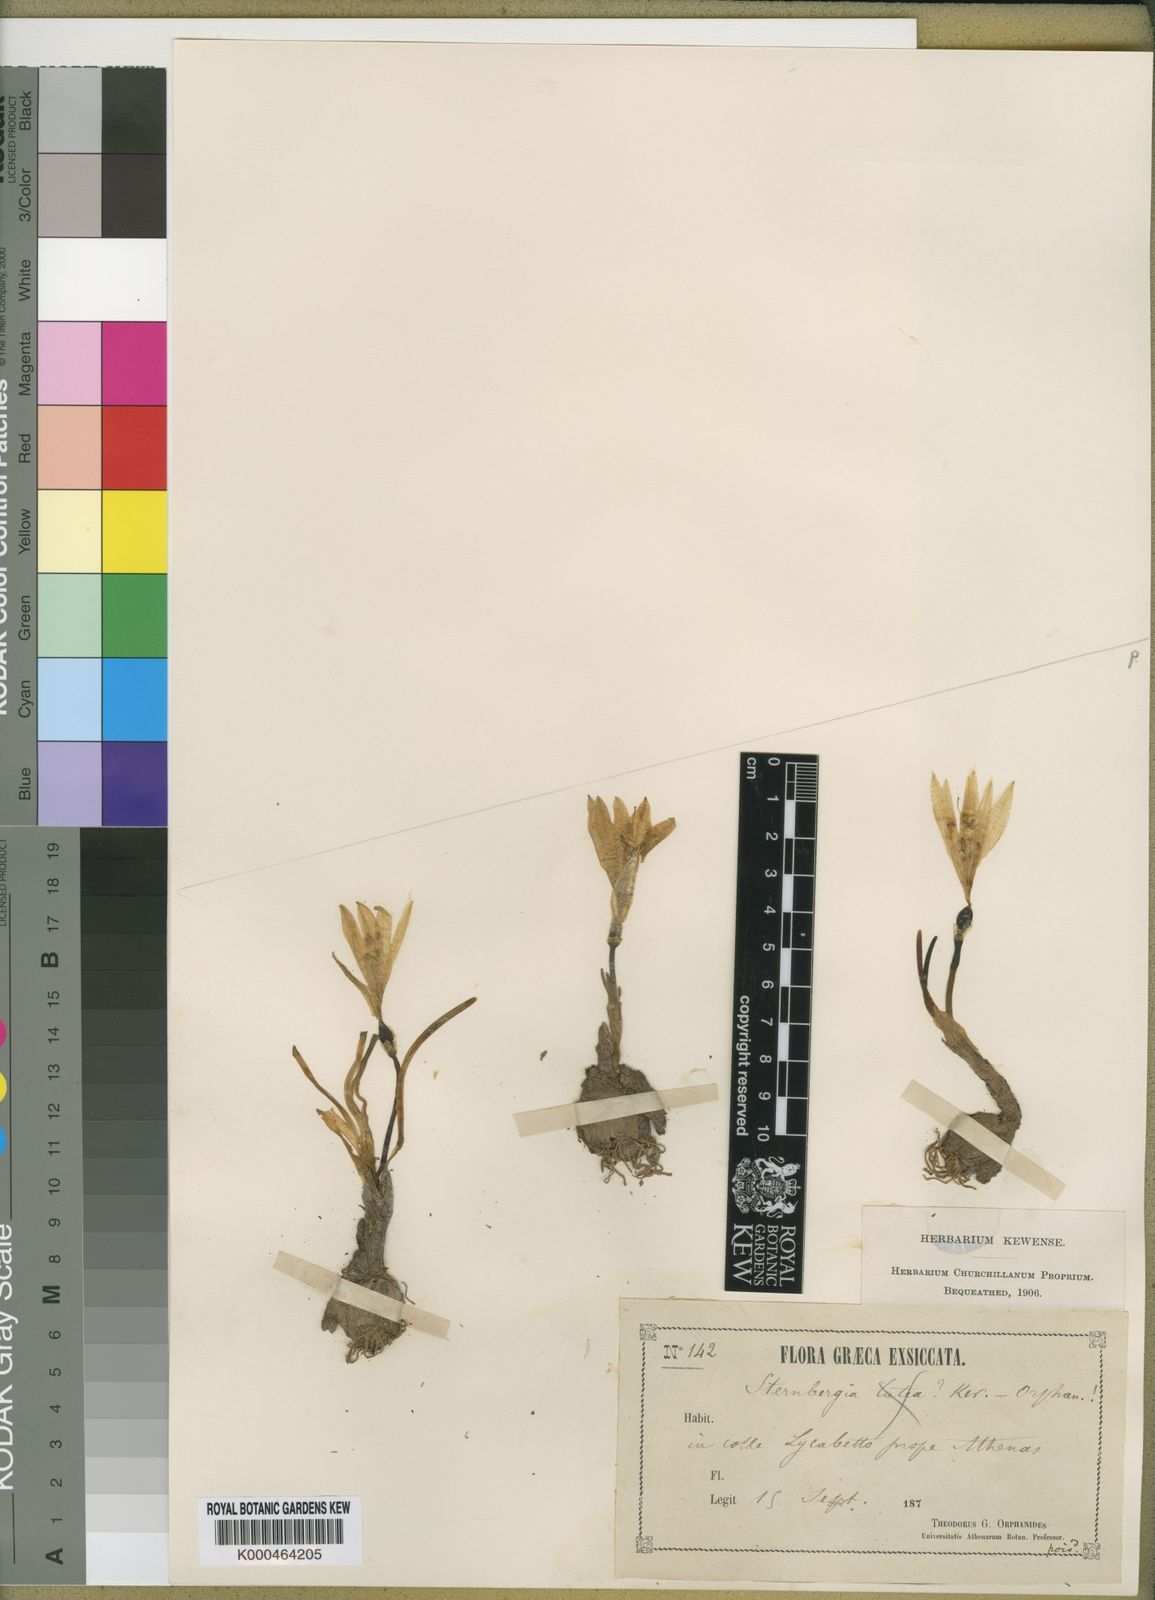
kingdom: Plantae
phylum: Tracheophyta
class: Liliopsida
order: Asparagales
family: Amaryllidaceae
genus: Sternbergia
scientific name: Sternbergia
